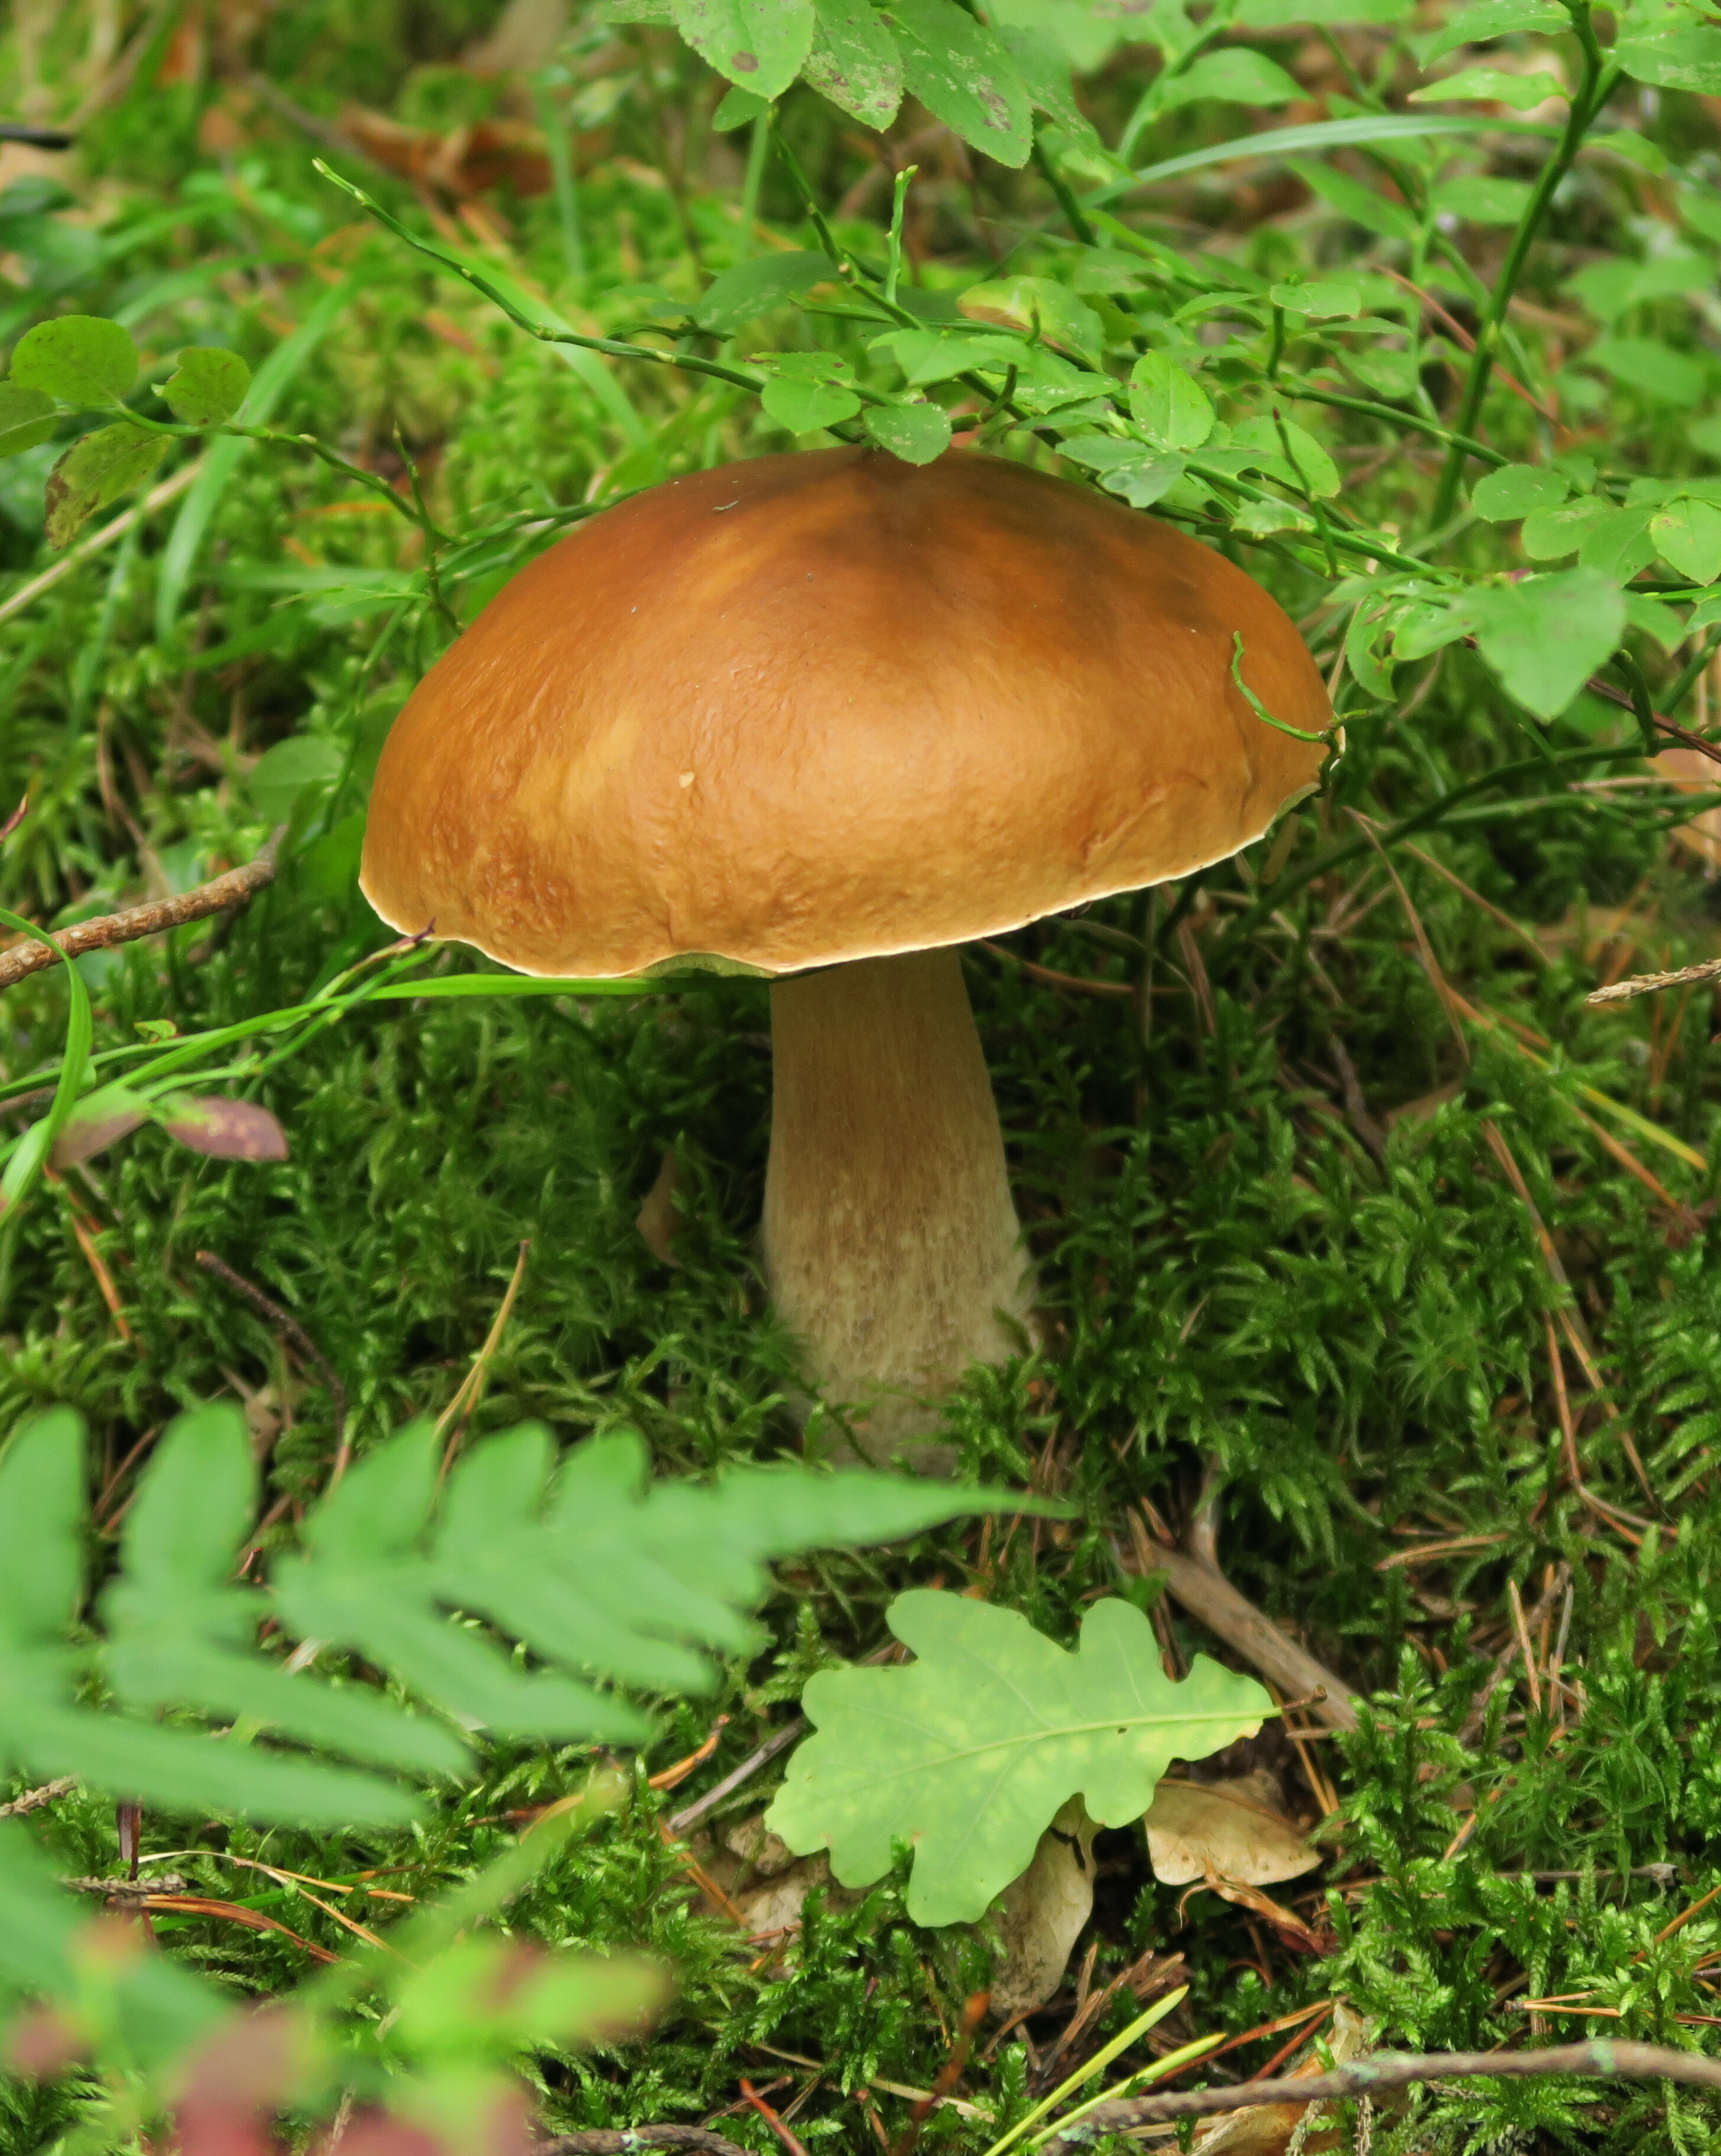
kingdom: Fungi
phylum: Basidiomycota
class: Agaricomycetes
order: Boletales
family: Boletaceae
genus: Boletus
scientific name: Boletus edulis
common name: Cep
